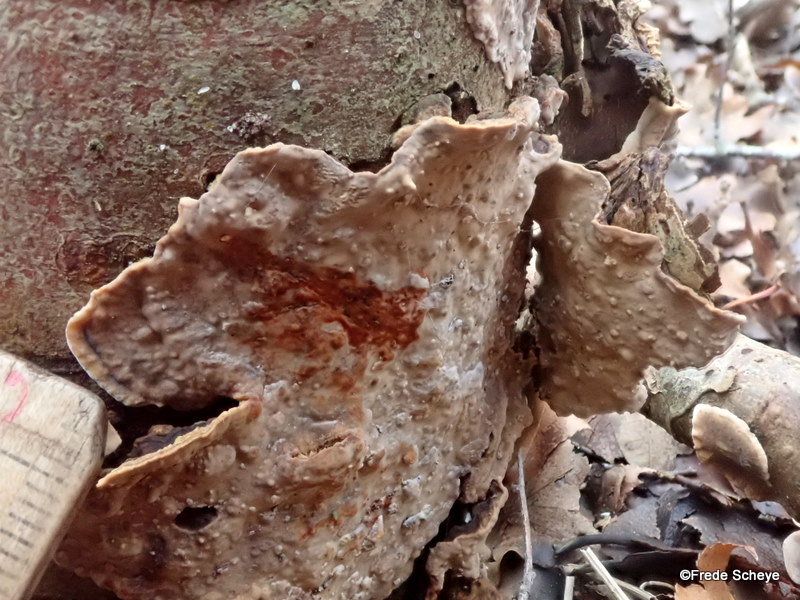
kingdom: Fungi
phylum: Basidiomycota
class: Agaricomycetes
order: Russulales
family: Stereaceae
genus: Stereum
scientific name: Stereum rugosum
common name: rynket lædersvamp
